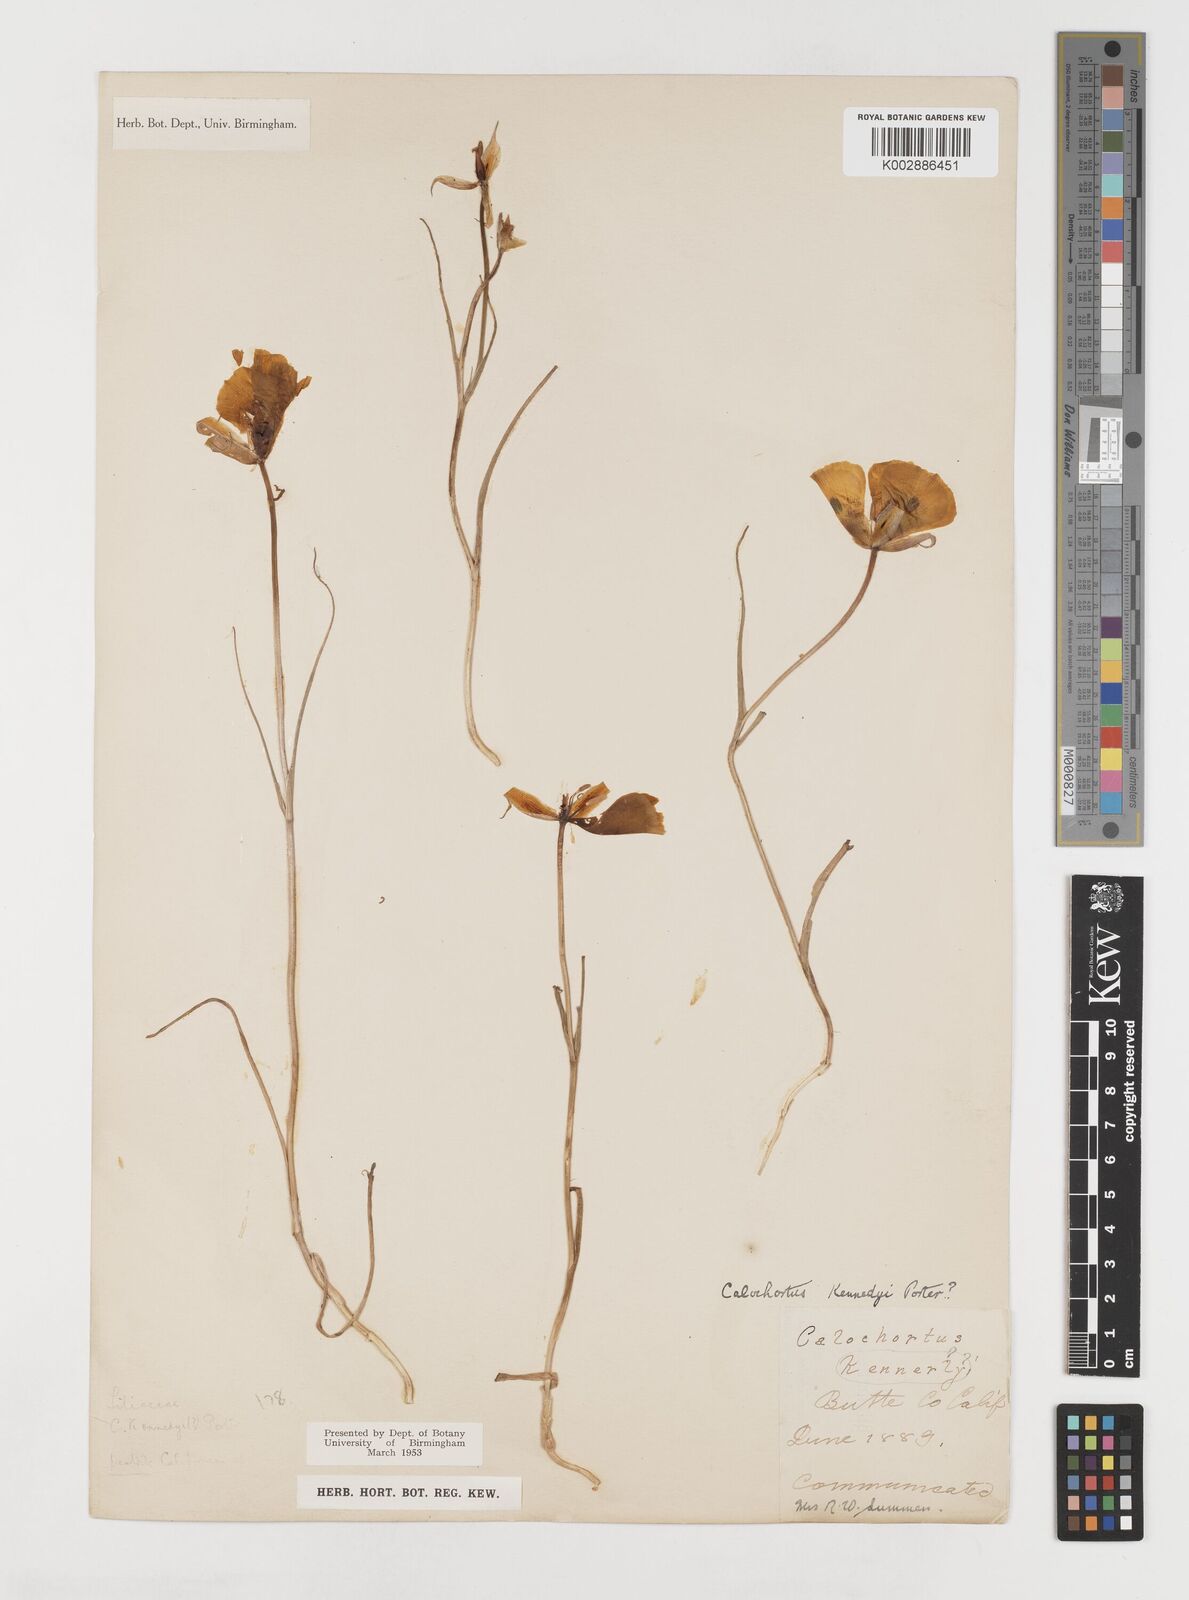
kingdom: Plantae
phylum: Tracheophyta
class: Liliopsida
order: Liliales
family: Liliaceae
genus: Calochortus
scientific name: Calochortus kennedyi
